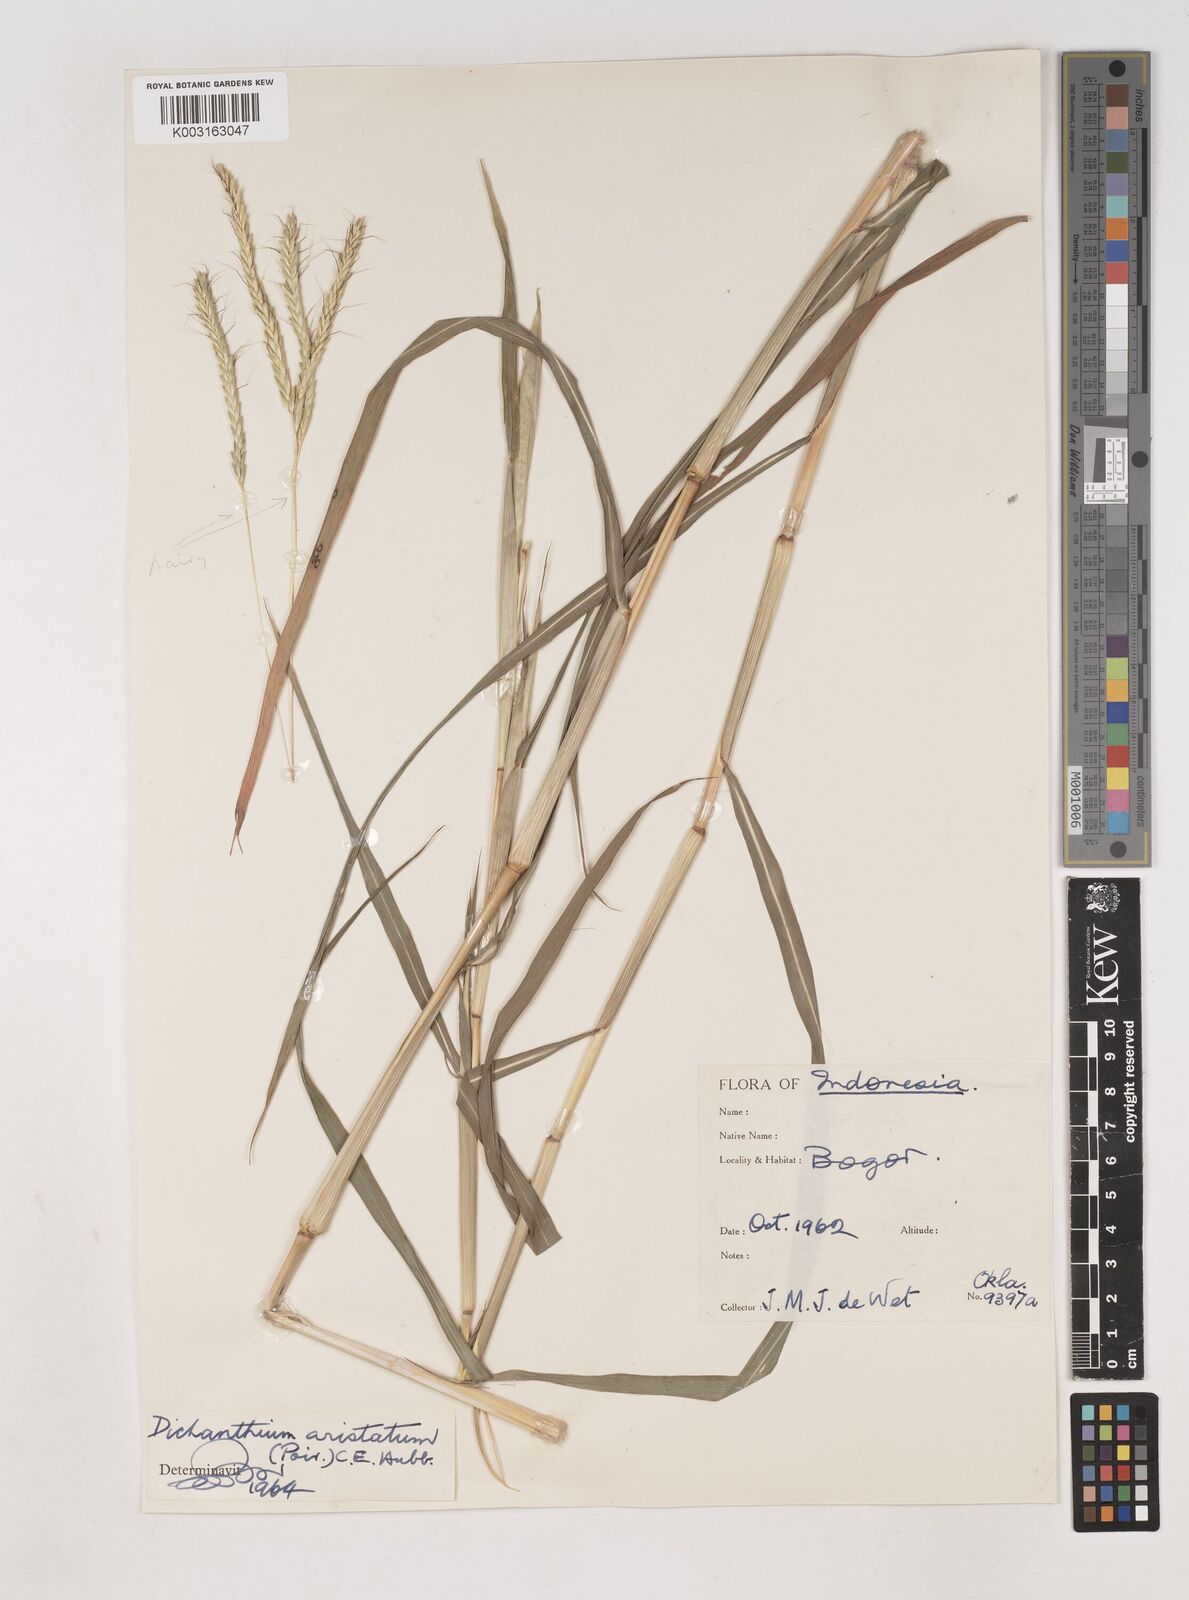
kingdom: Plantae
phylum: Tracheophyta
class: Liliopsida
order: Poales
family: Poaceae
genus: Dichanthium
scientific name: Dichanthium aristatum
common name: Angleton bluestem
